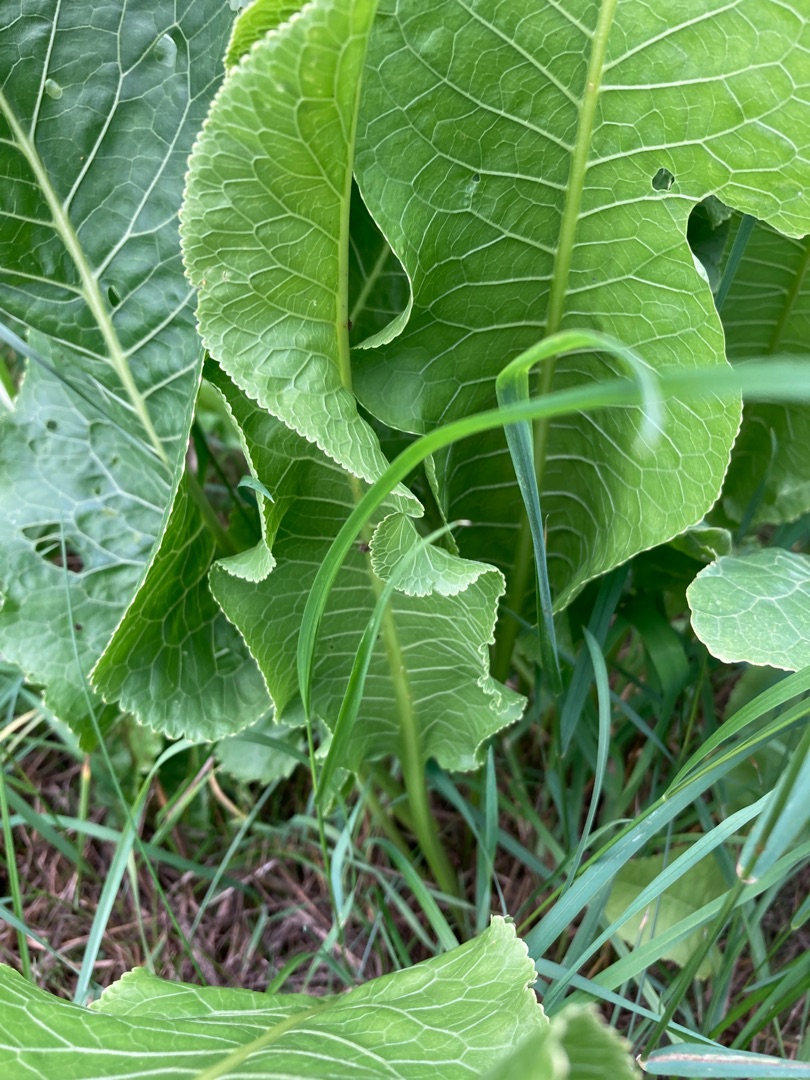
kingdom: Plantae
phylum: Tracheophyta
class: Magnoliopsida
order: Brassicales
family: Brassicaceae
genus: Armoracia
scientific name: Armoracia rusticana
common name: Peberrod
